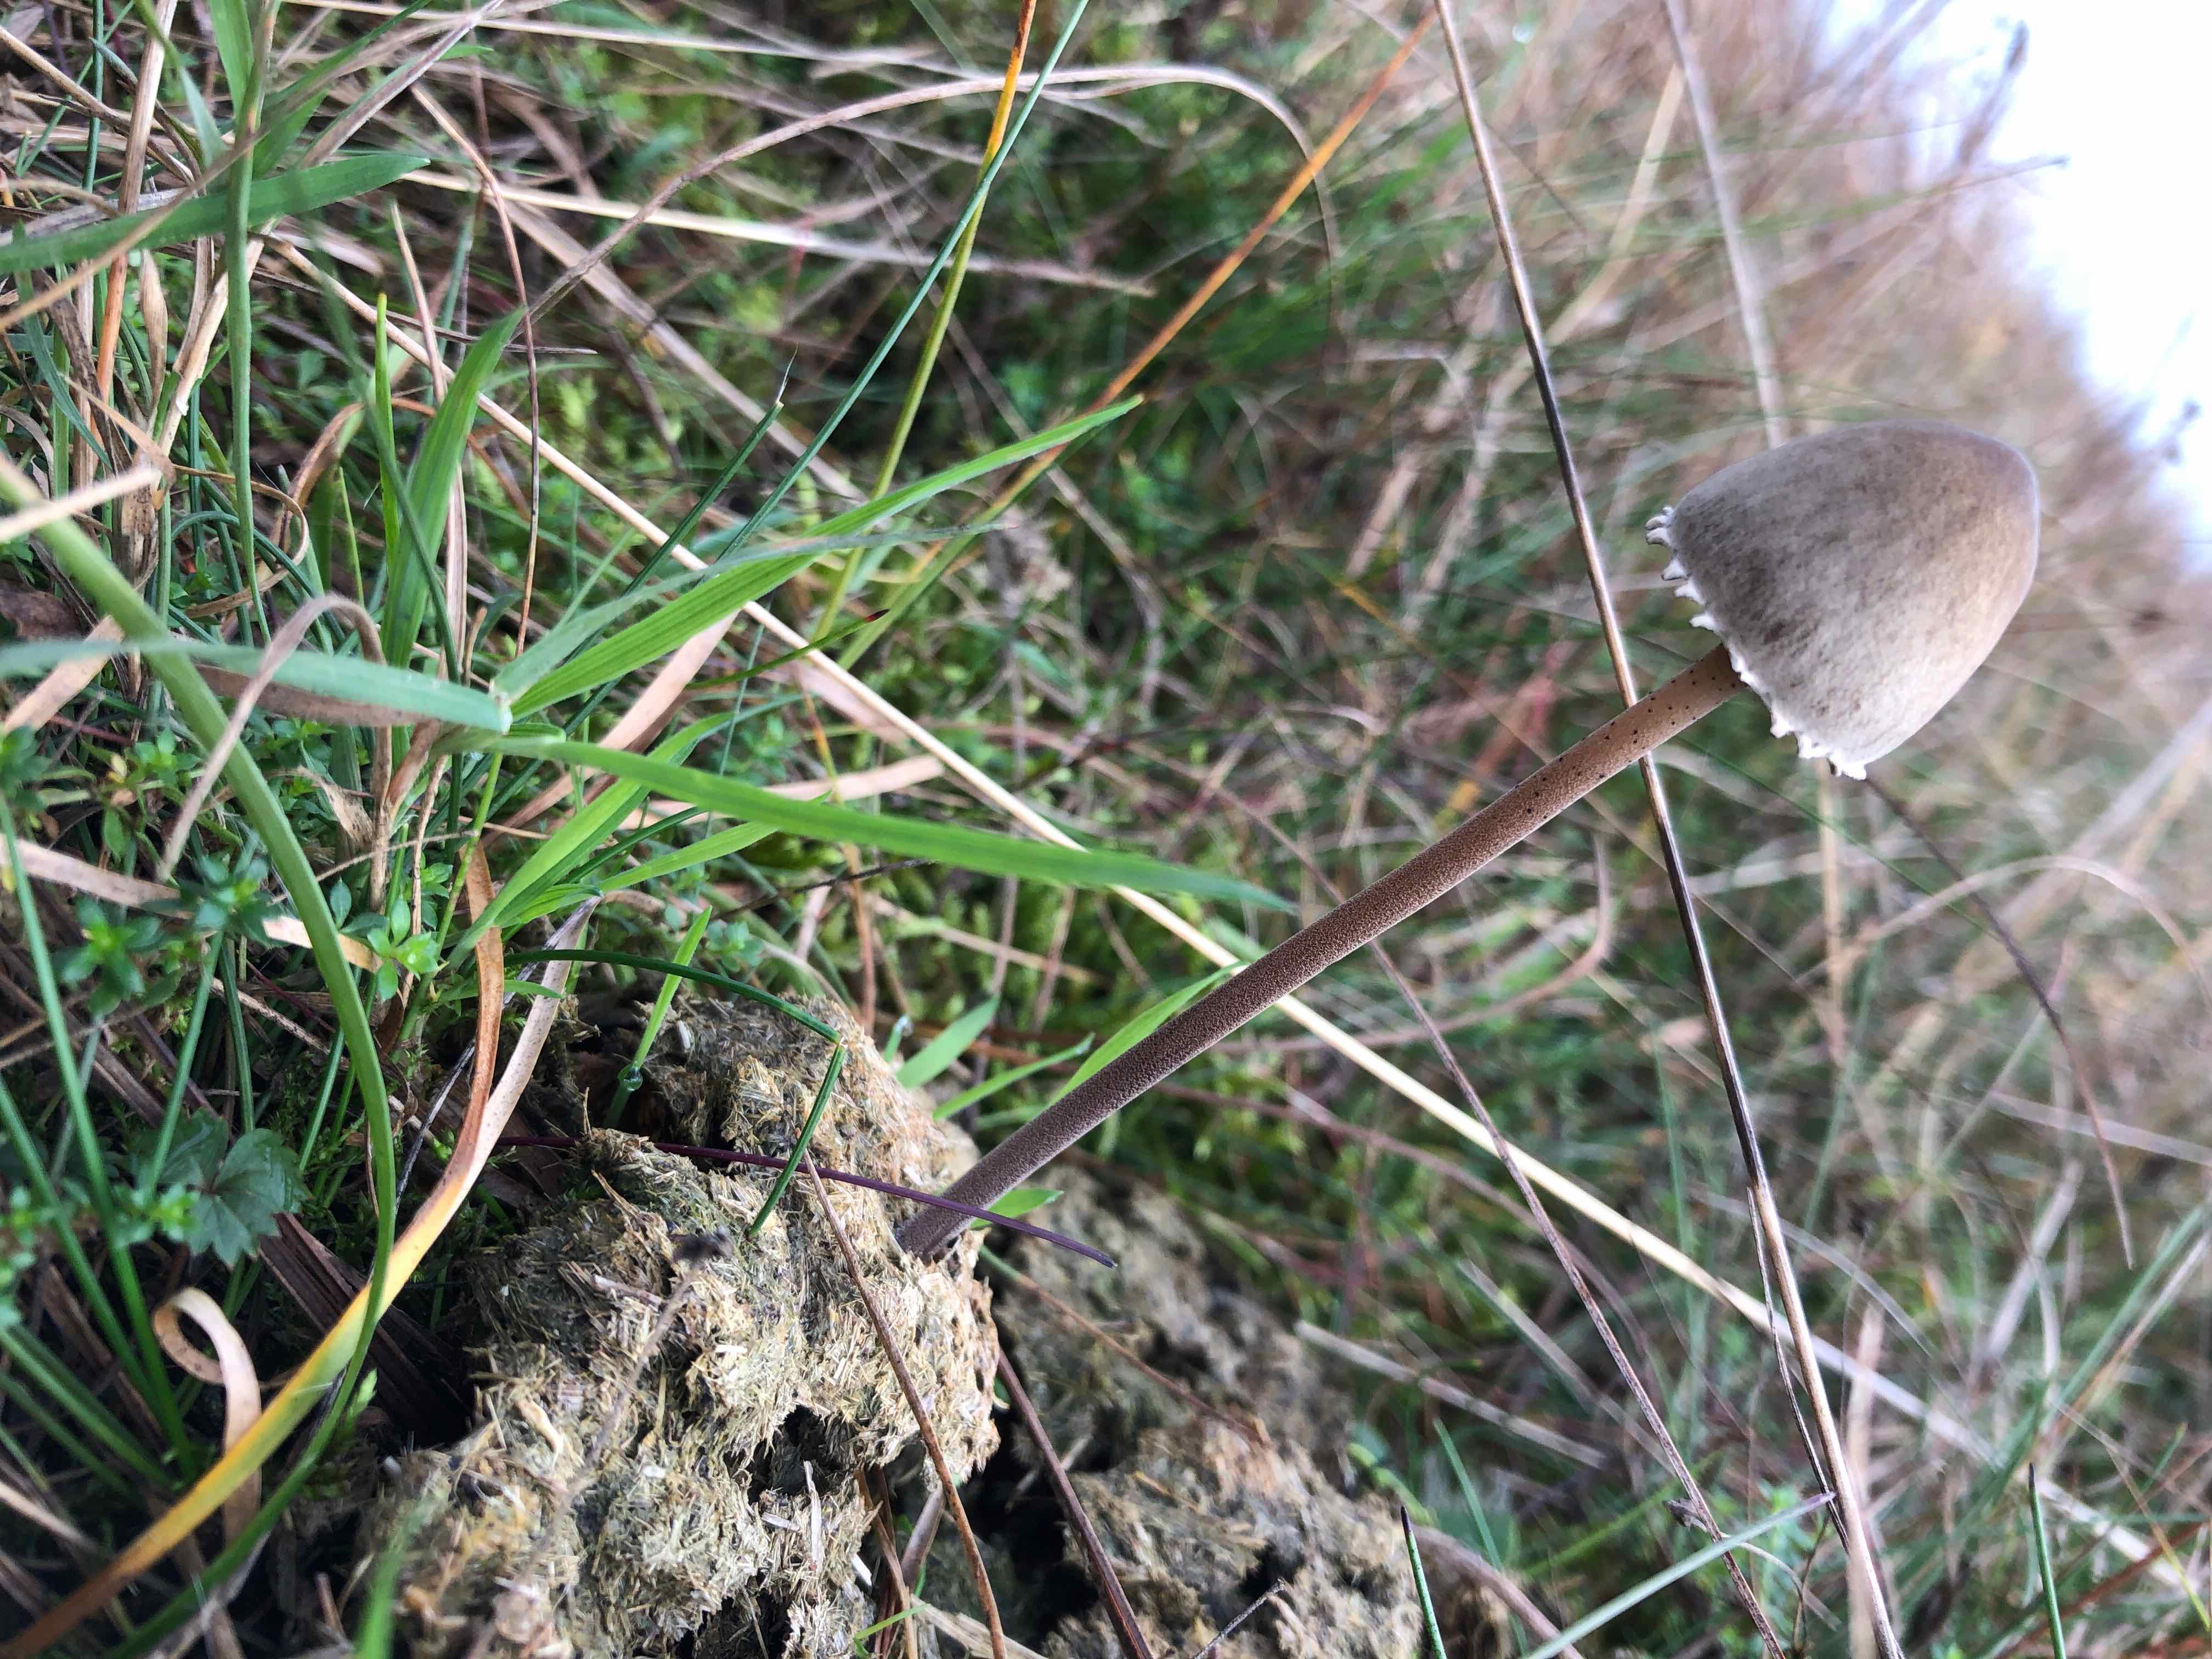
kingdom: Fungi
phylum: Basidiomycota
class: Agaricomycetes
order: Agaricales
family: Bolbitiaceae
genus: Panaeolus
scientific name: Panaeolus papilionaceus
